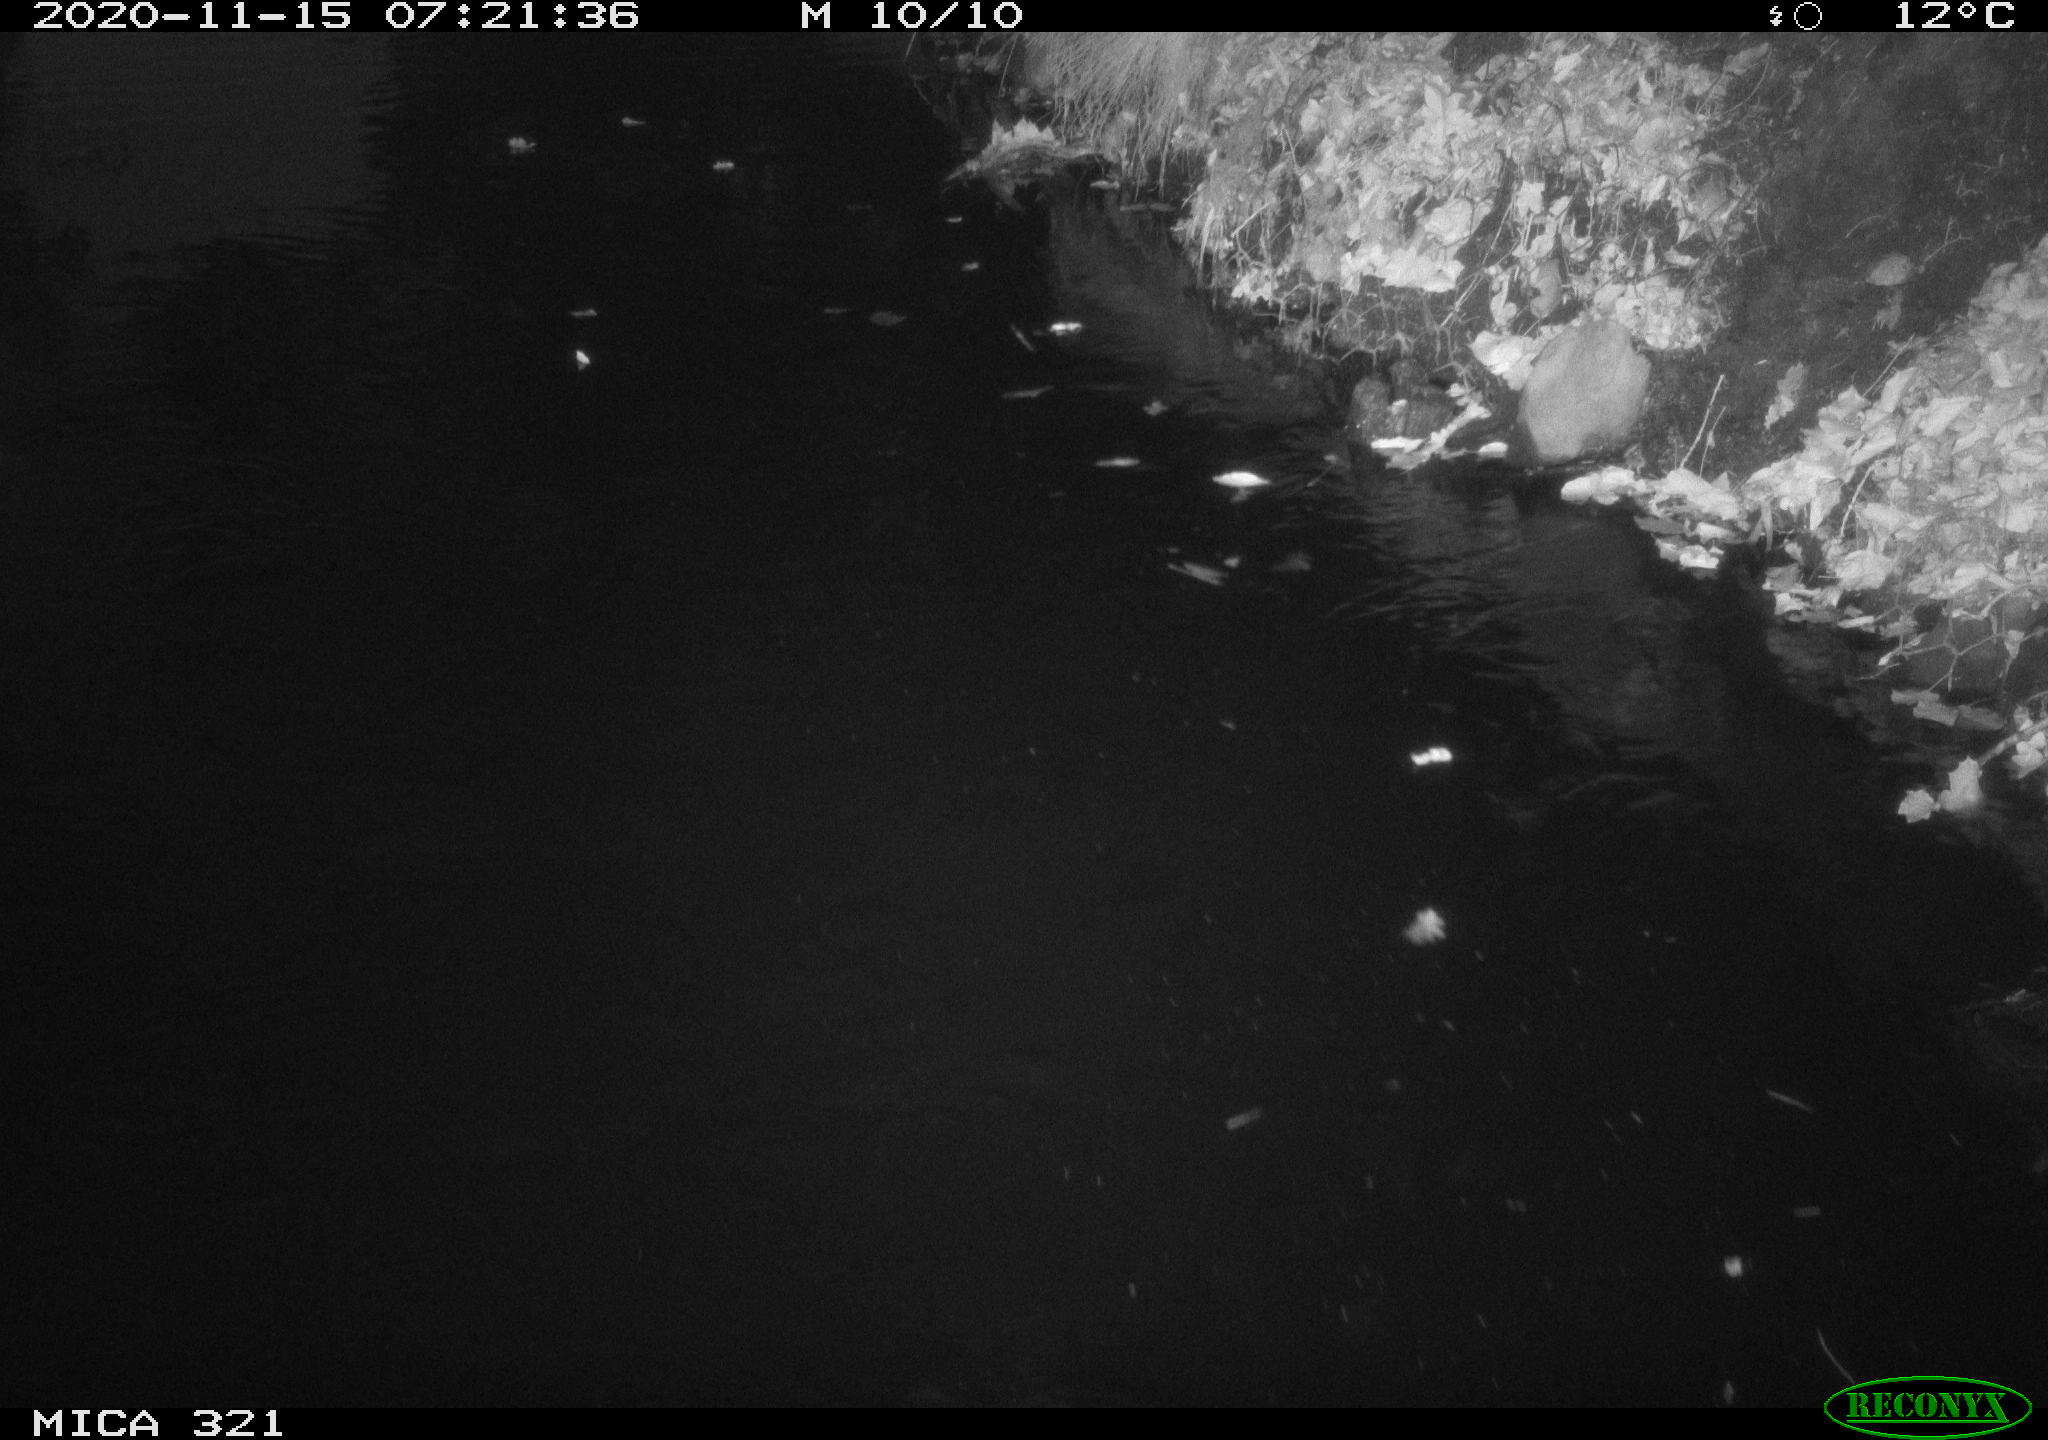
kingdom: Animalia
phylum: Chordata
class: Aves
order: Anseriformes
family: Anatidae
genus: Anas
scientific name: Anas platyrhynchos
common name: Mallard
